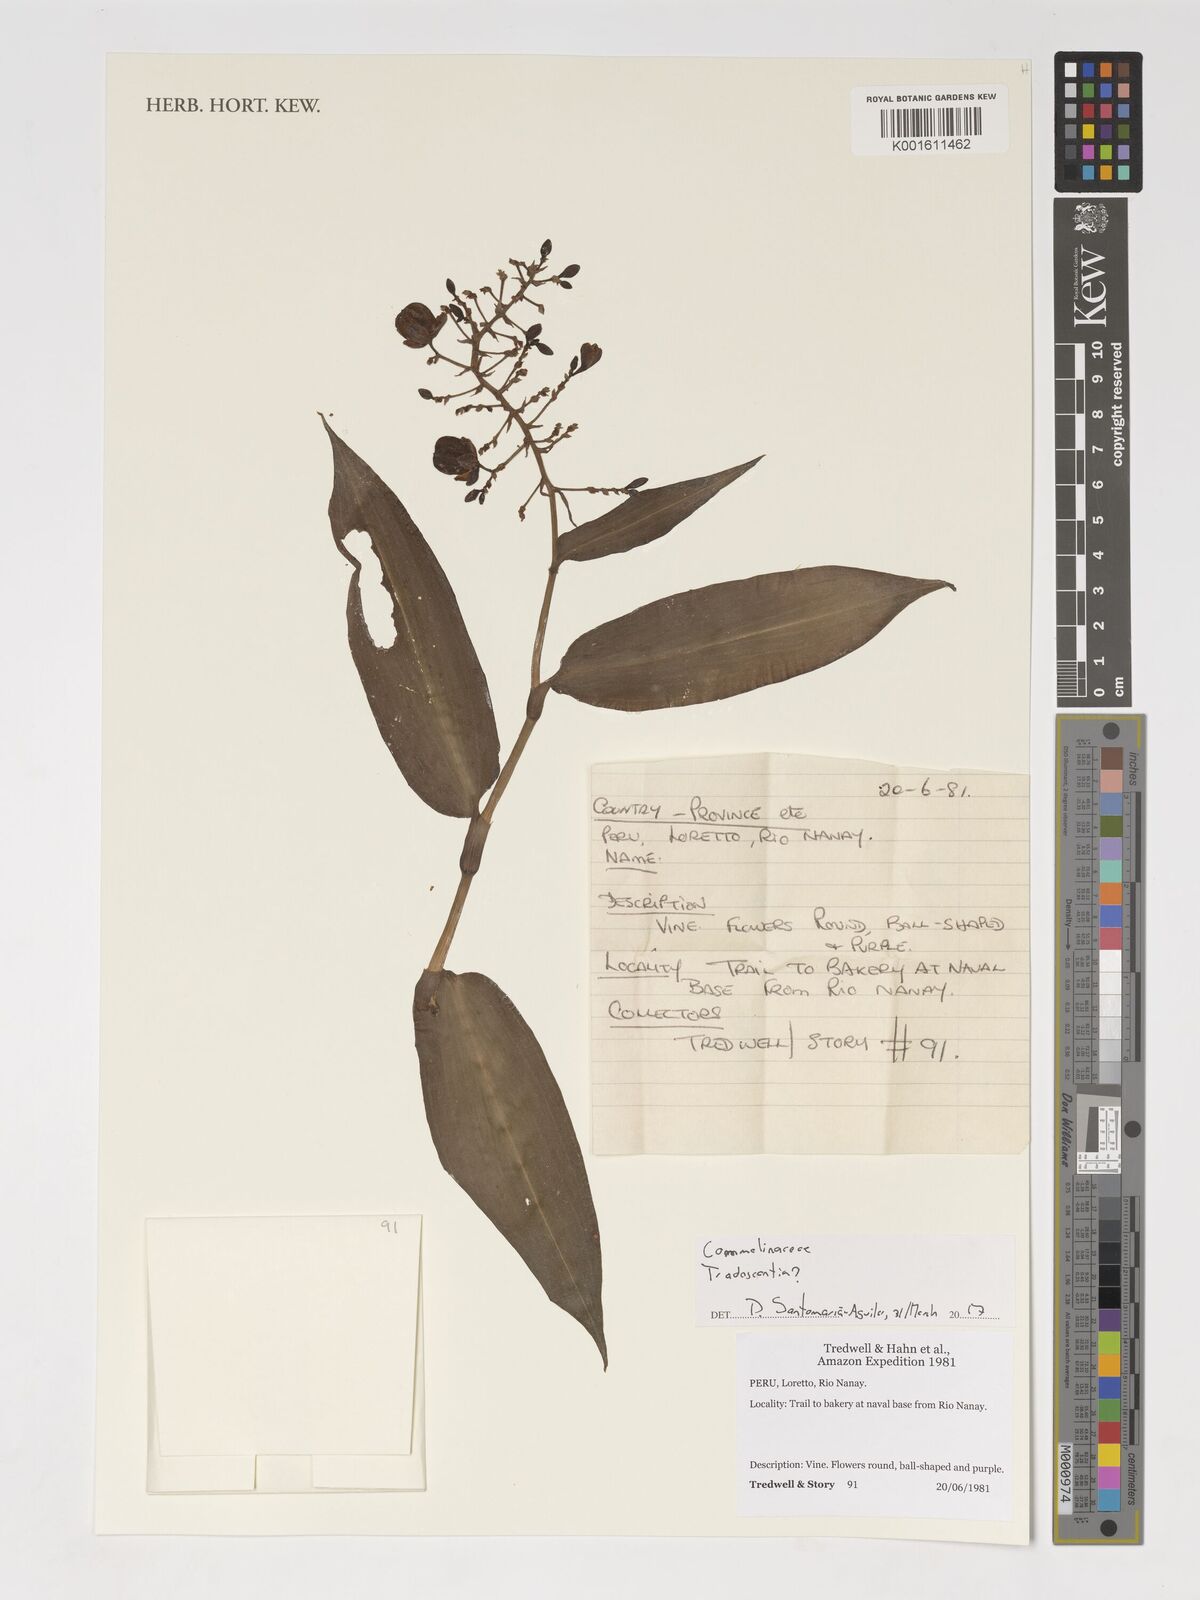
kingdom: Plantae
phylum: Tracheophyta
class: Liliopsida
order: Commelinales
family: Commelinaceae
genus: Tradescantia
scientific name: Tradescantia
